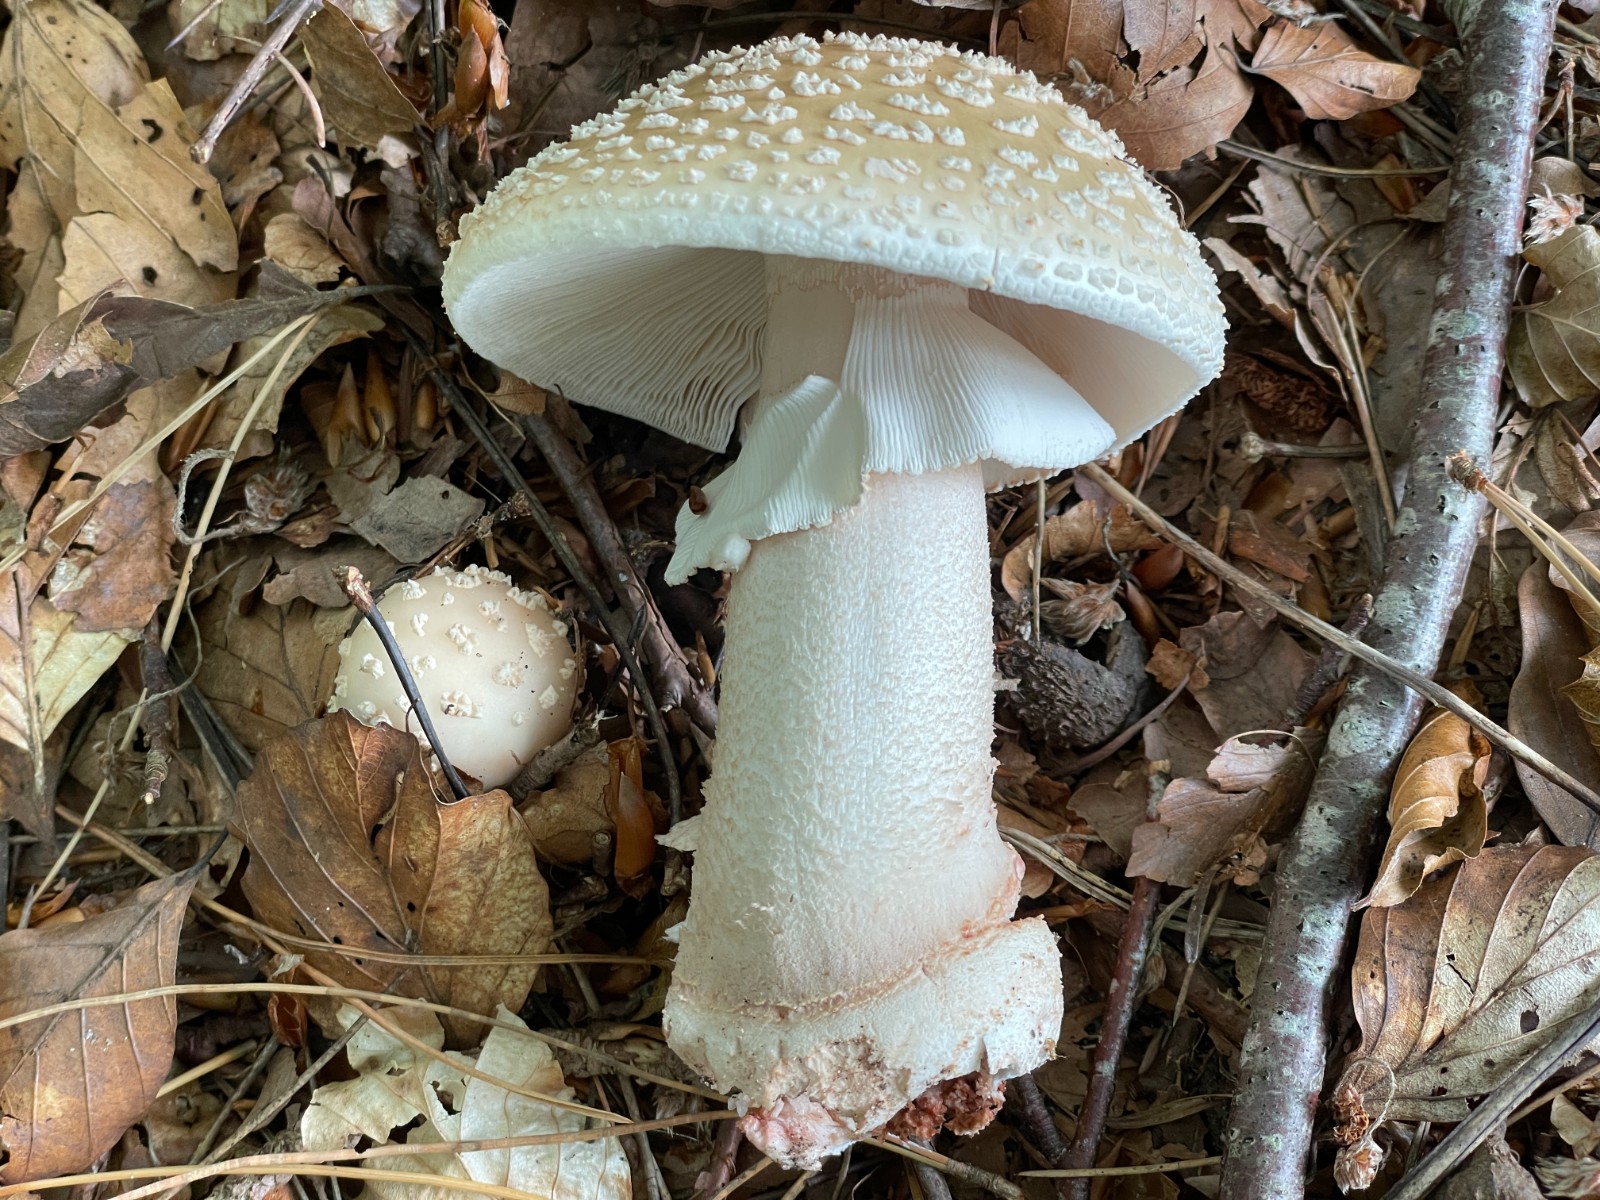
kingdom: Fungi
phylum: Basidiomycota
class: Agaricomycetes
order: Agaricales
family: Amanitaceae
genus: Amanita
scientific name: Amanita rubescens
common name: rødmende fluesvamp
